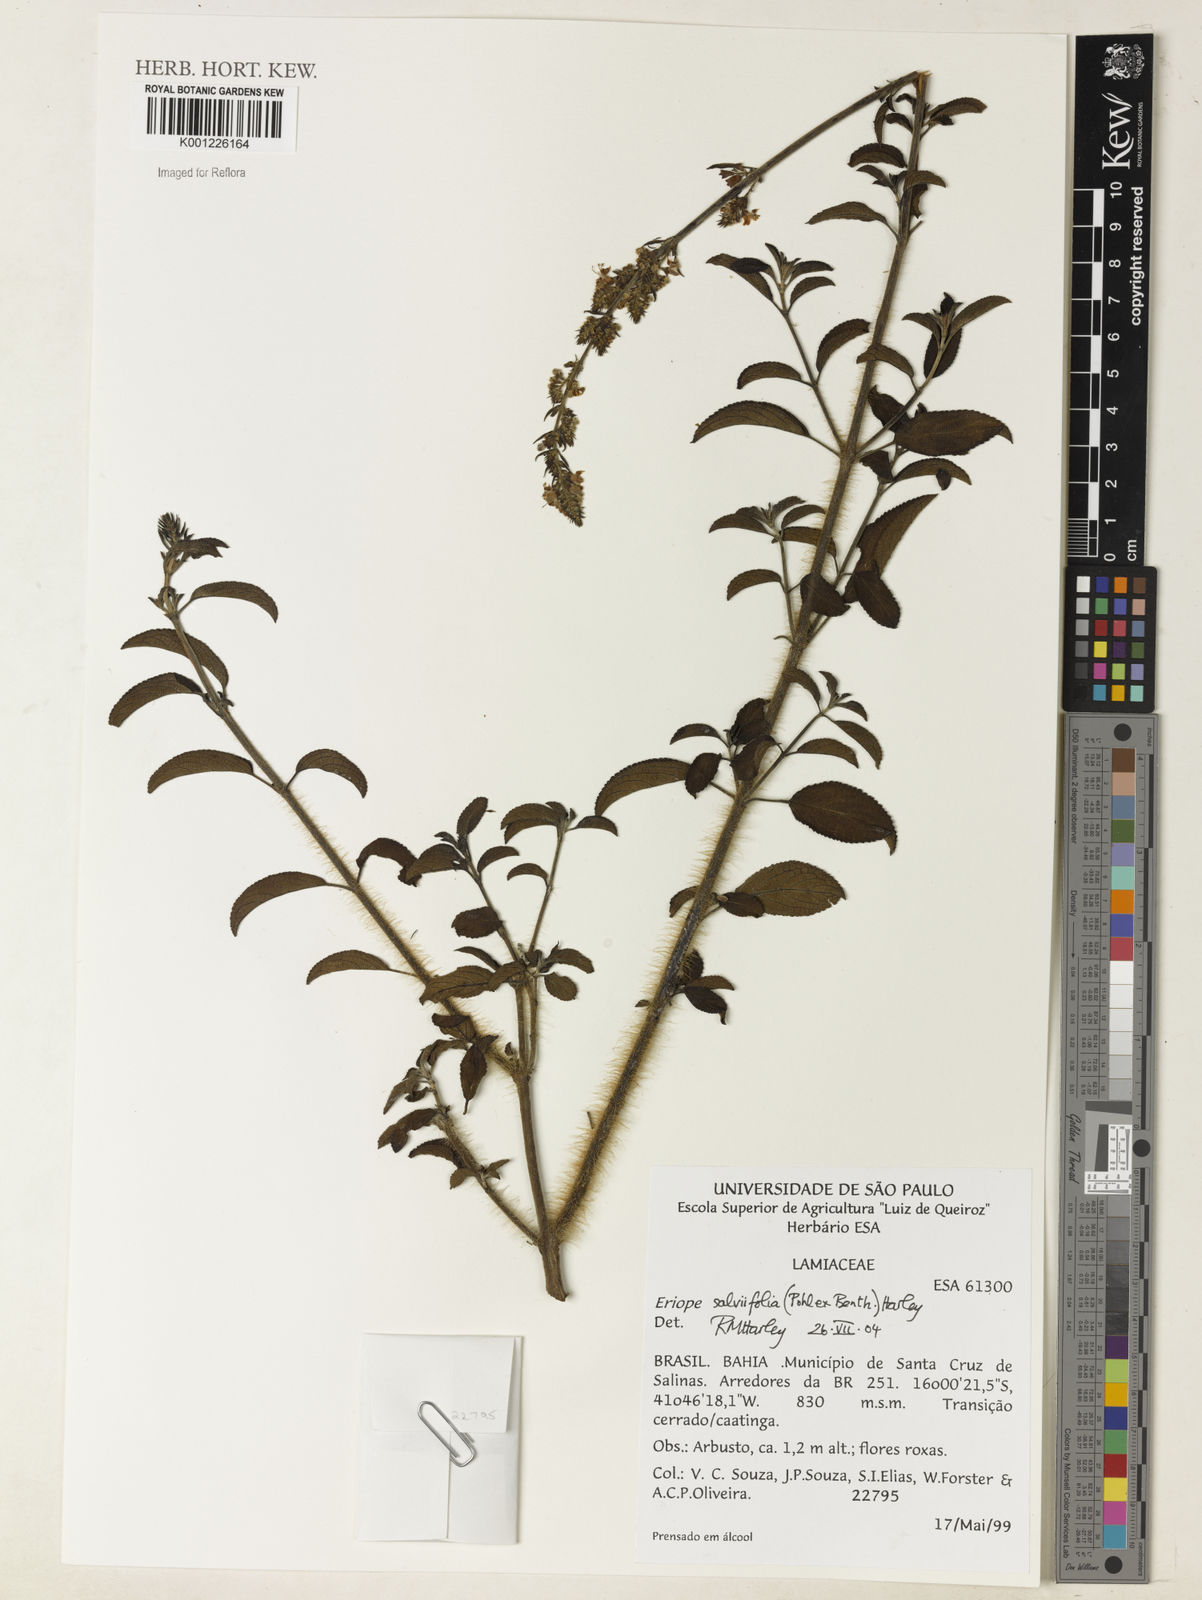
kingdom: Plantae
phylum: Tracheophyta
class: Magnoliopsida
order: Lamiales
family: Lamiaceae
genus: Eriope
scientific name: Eriope salviifolia
